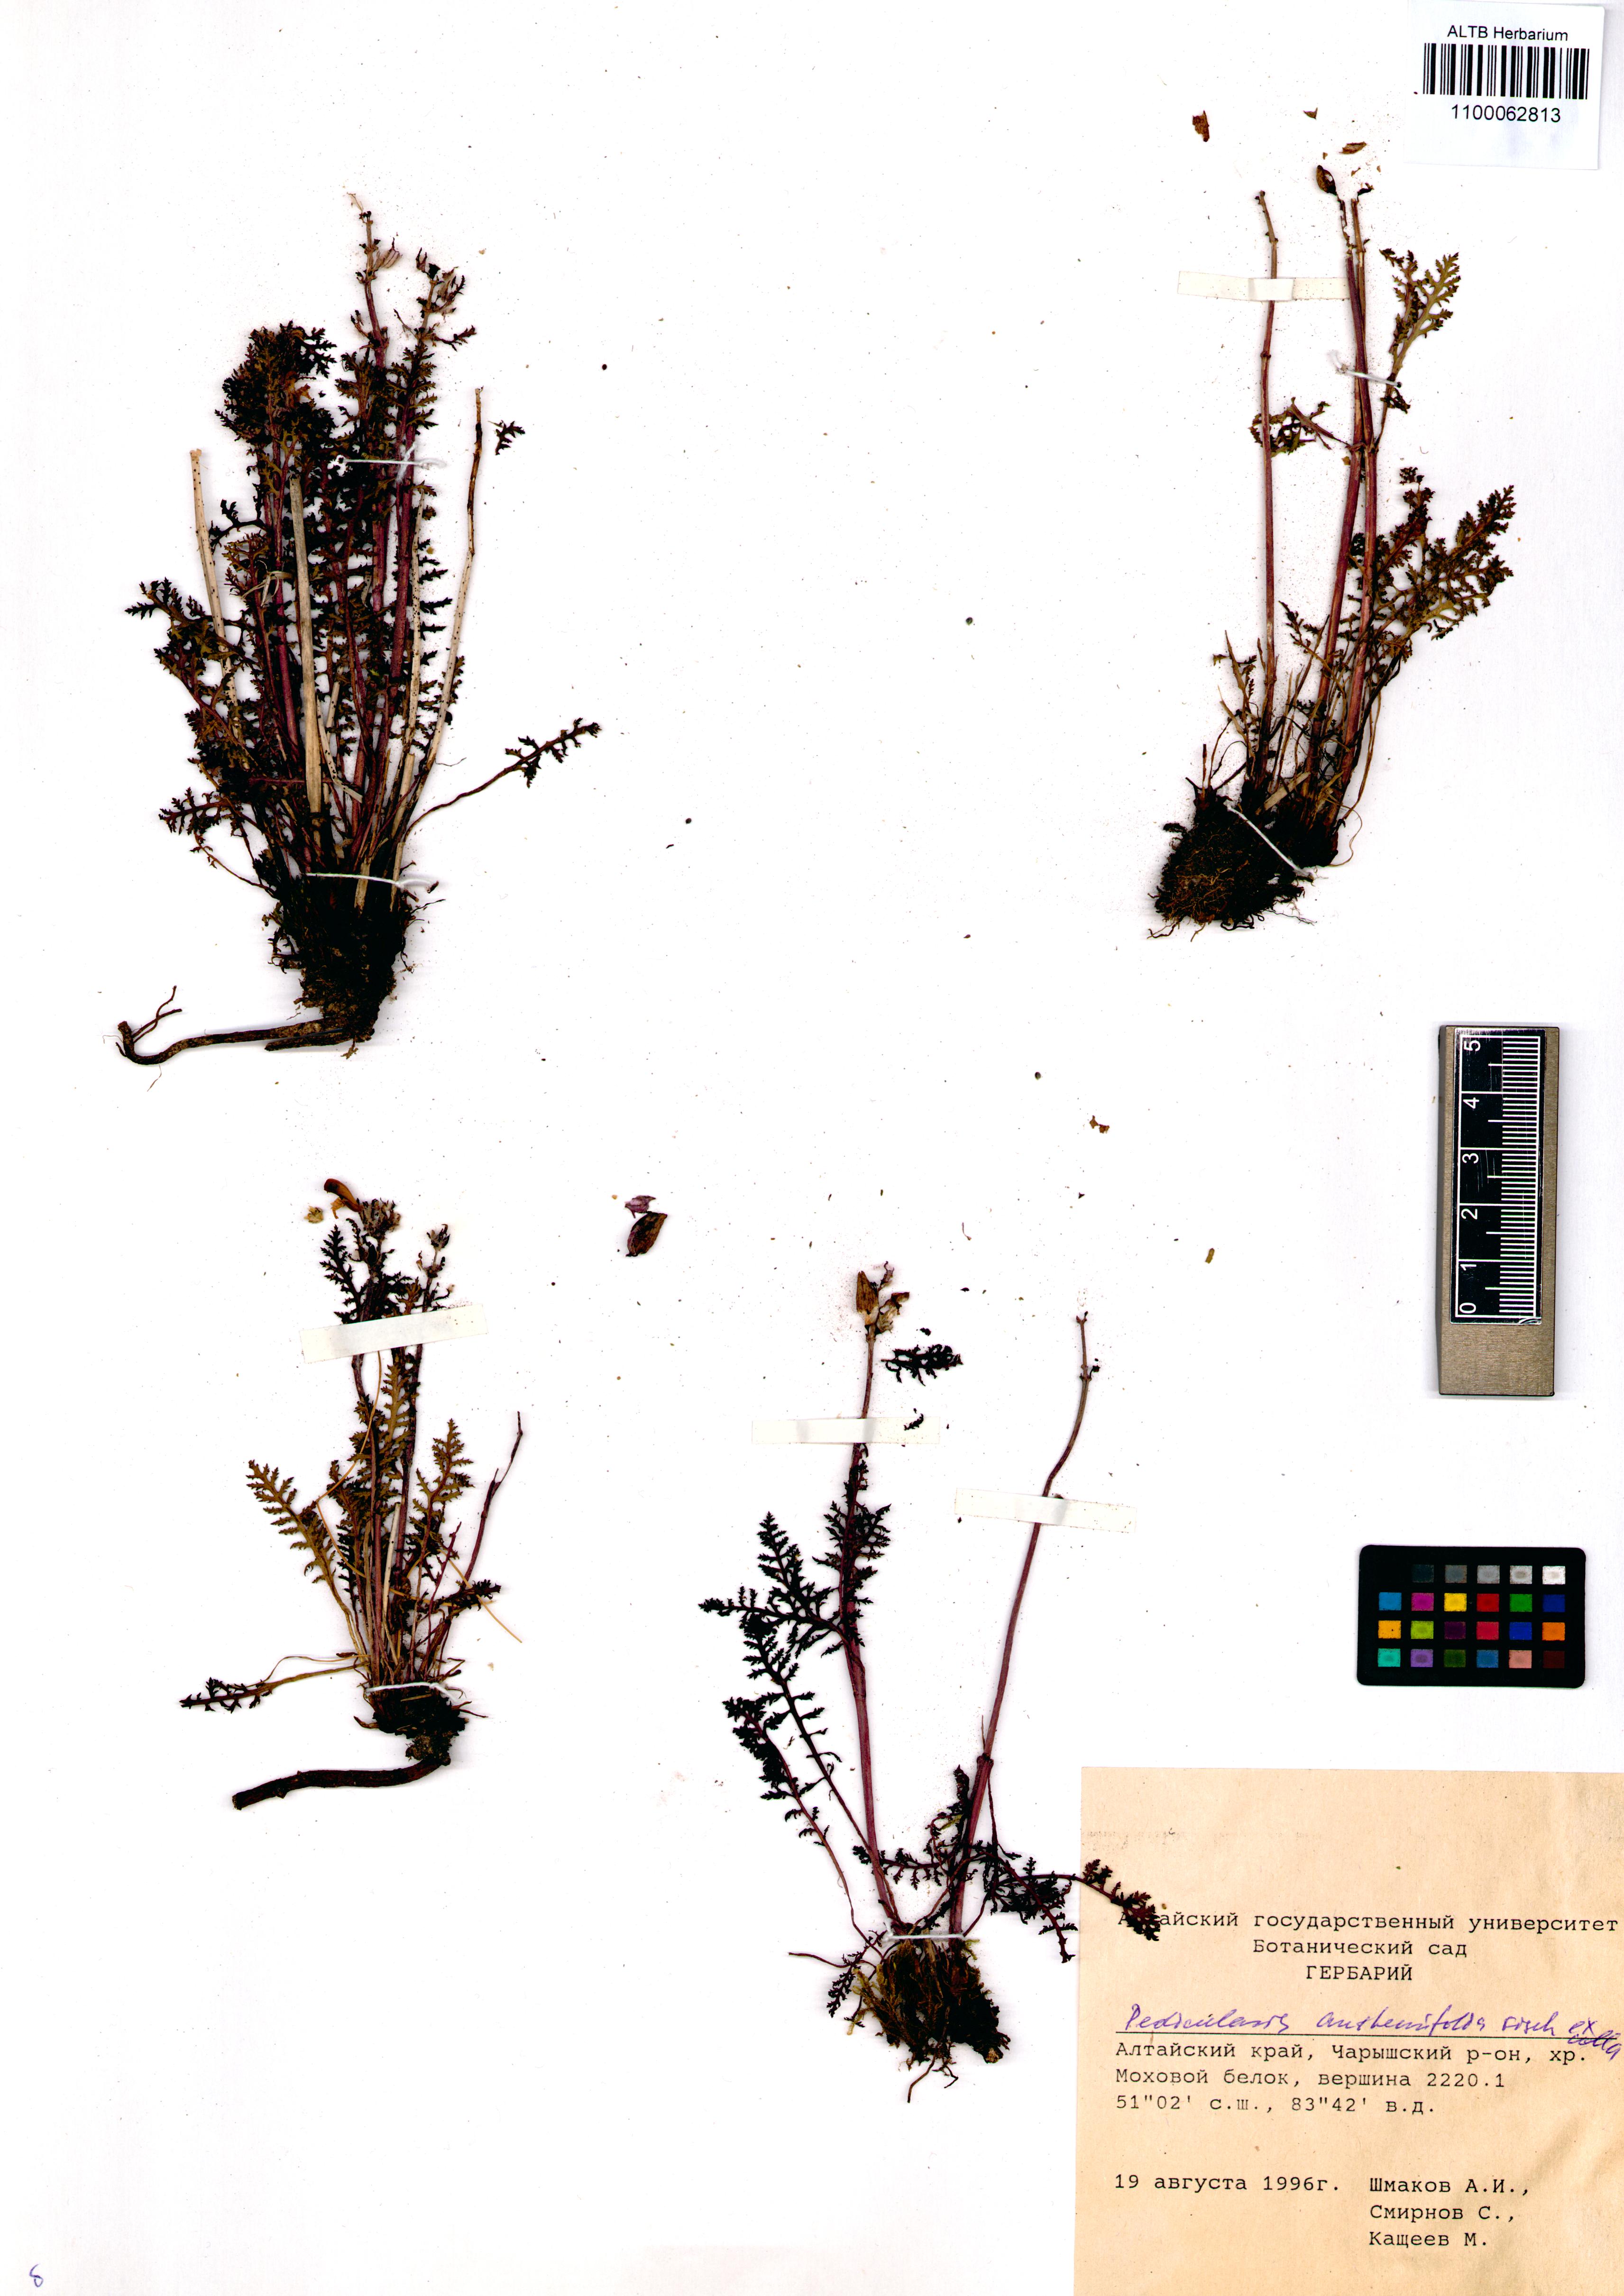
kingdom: Plantae
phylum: Tracheophyta
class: Magnoliopsida
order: Lamiales
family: Orobanchaceae
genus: Pedicularis
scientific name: Pedicularis anthemifolia
